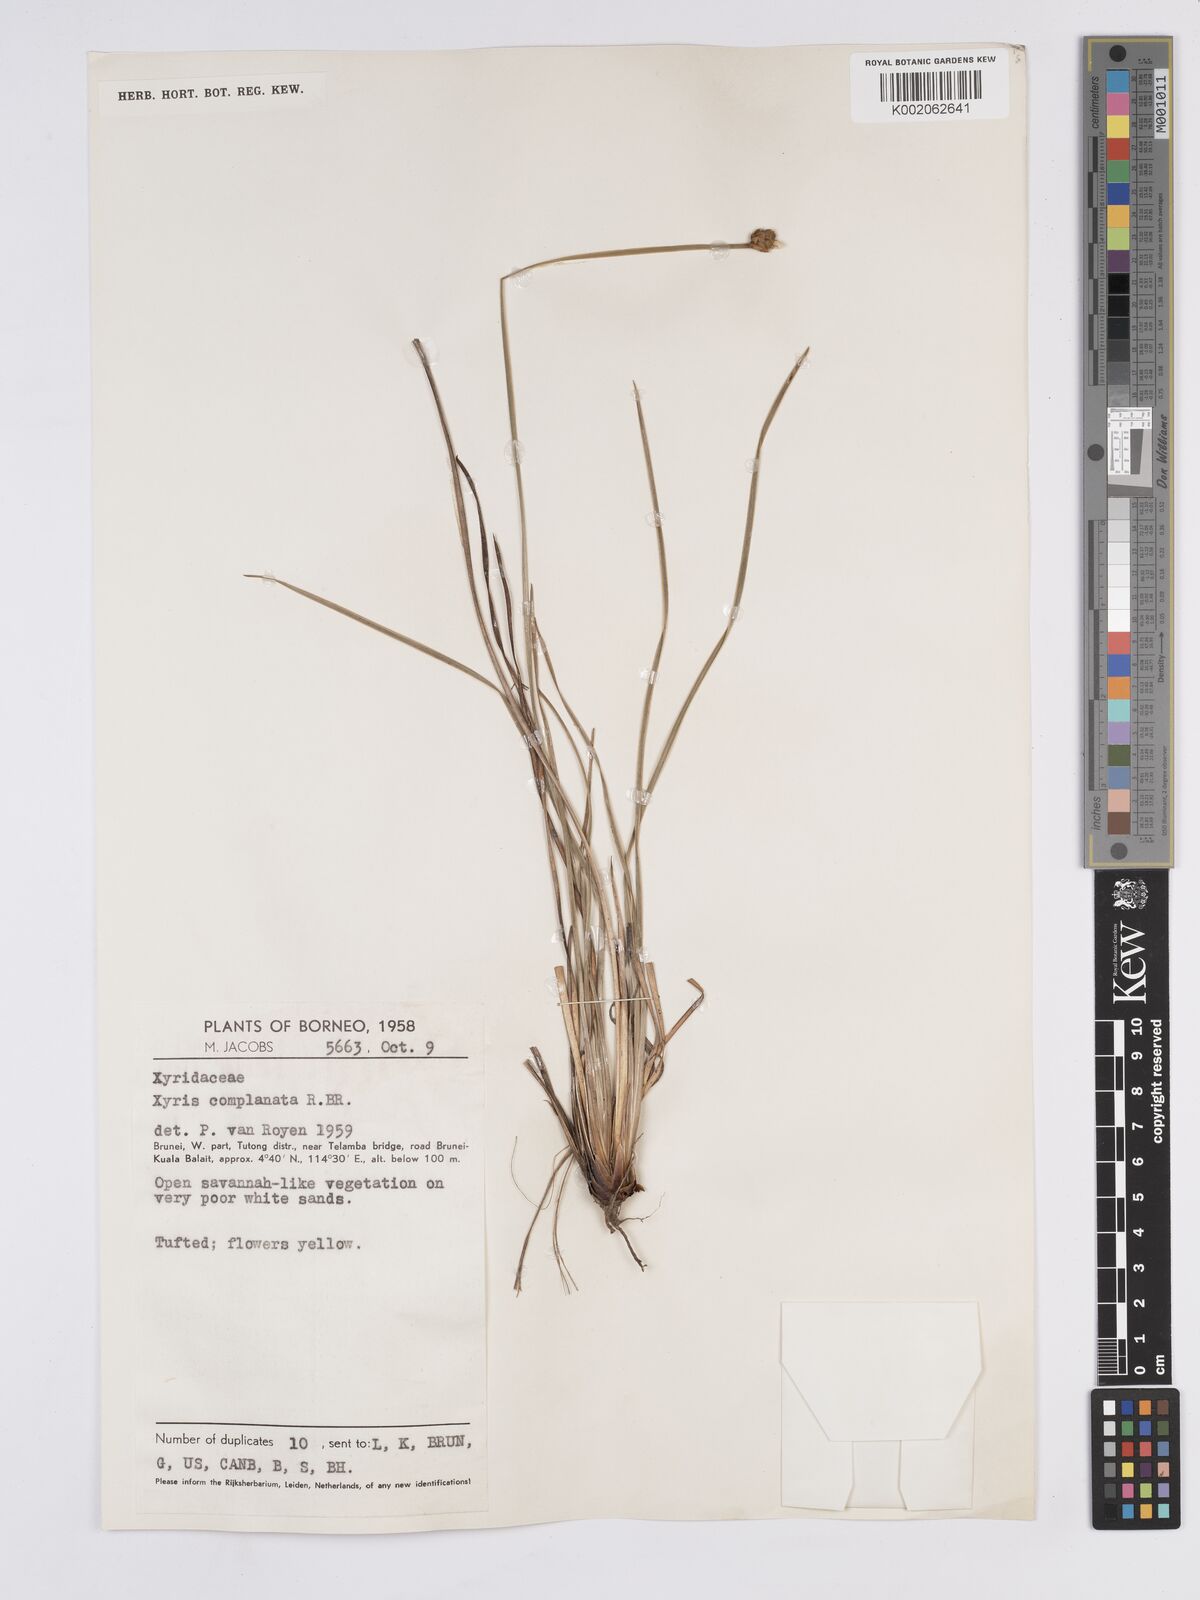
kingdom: Plantae
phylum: Tracheophyta
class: Liliopsida
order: Poales
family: Xyridaceae
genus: Xyris
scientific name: Xyris complanata
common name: Hawai'i yelloweyed grass
